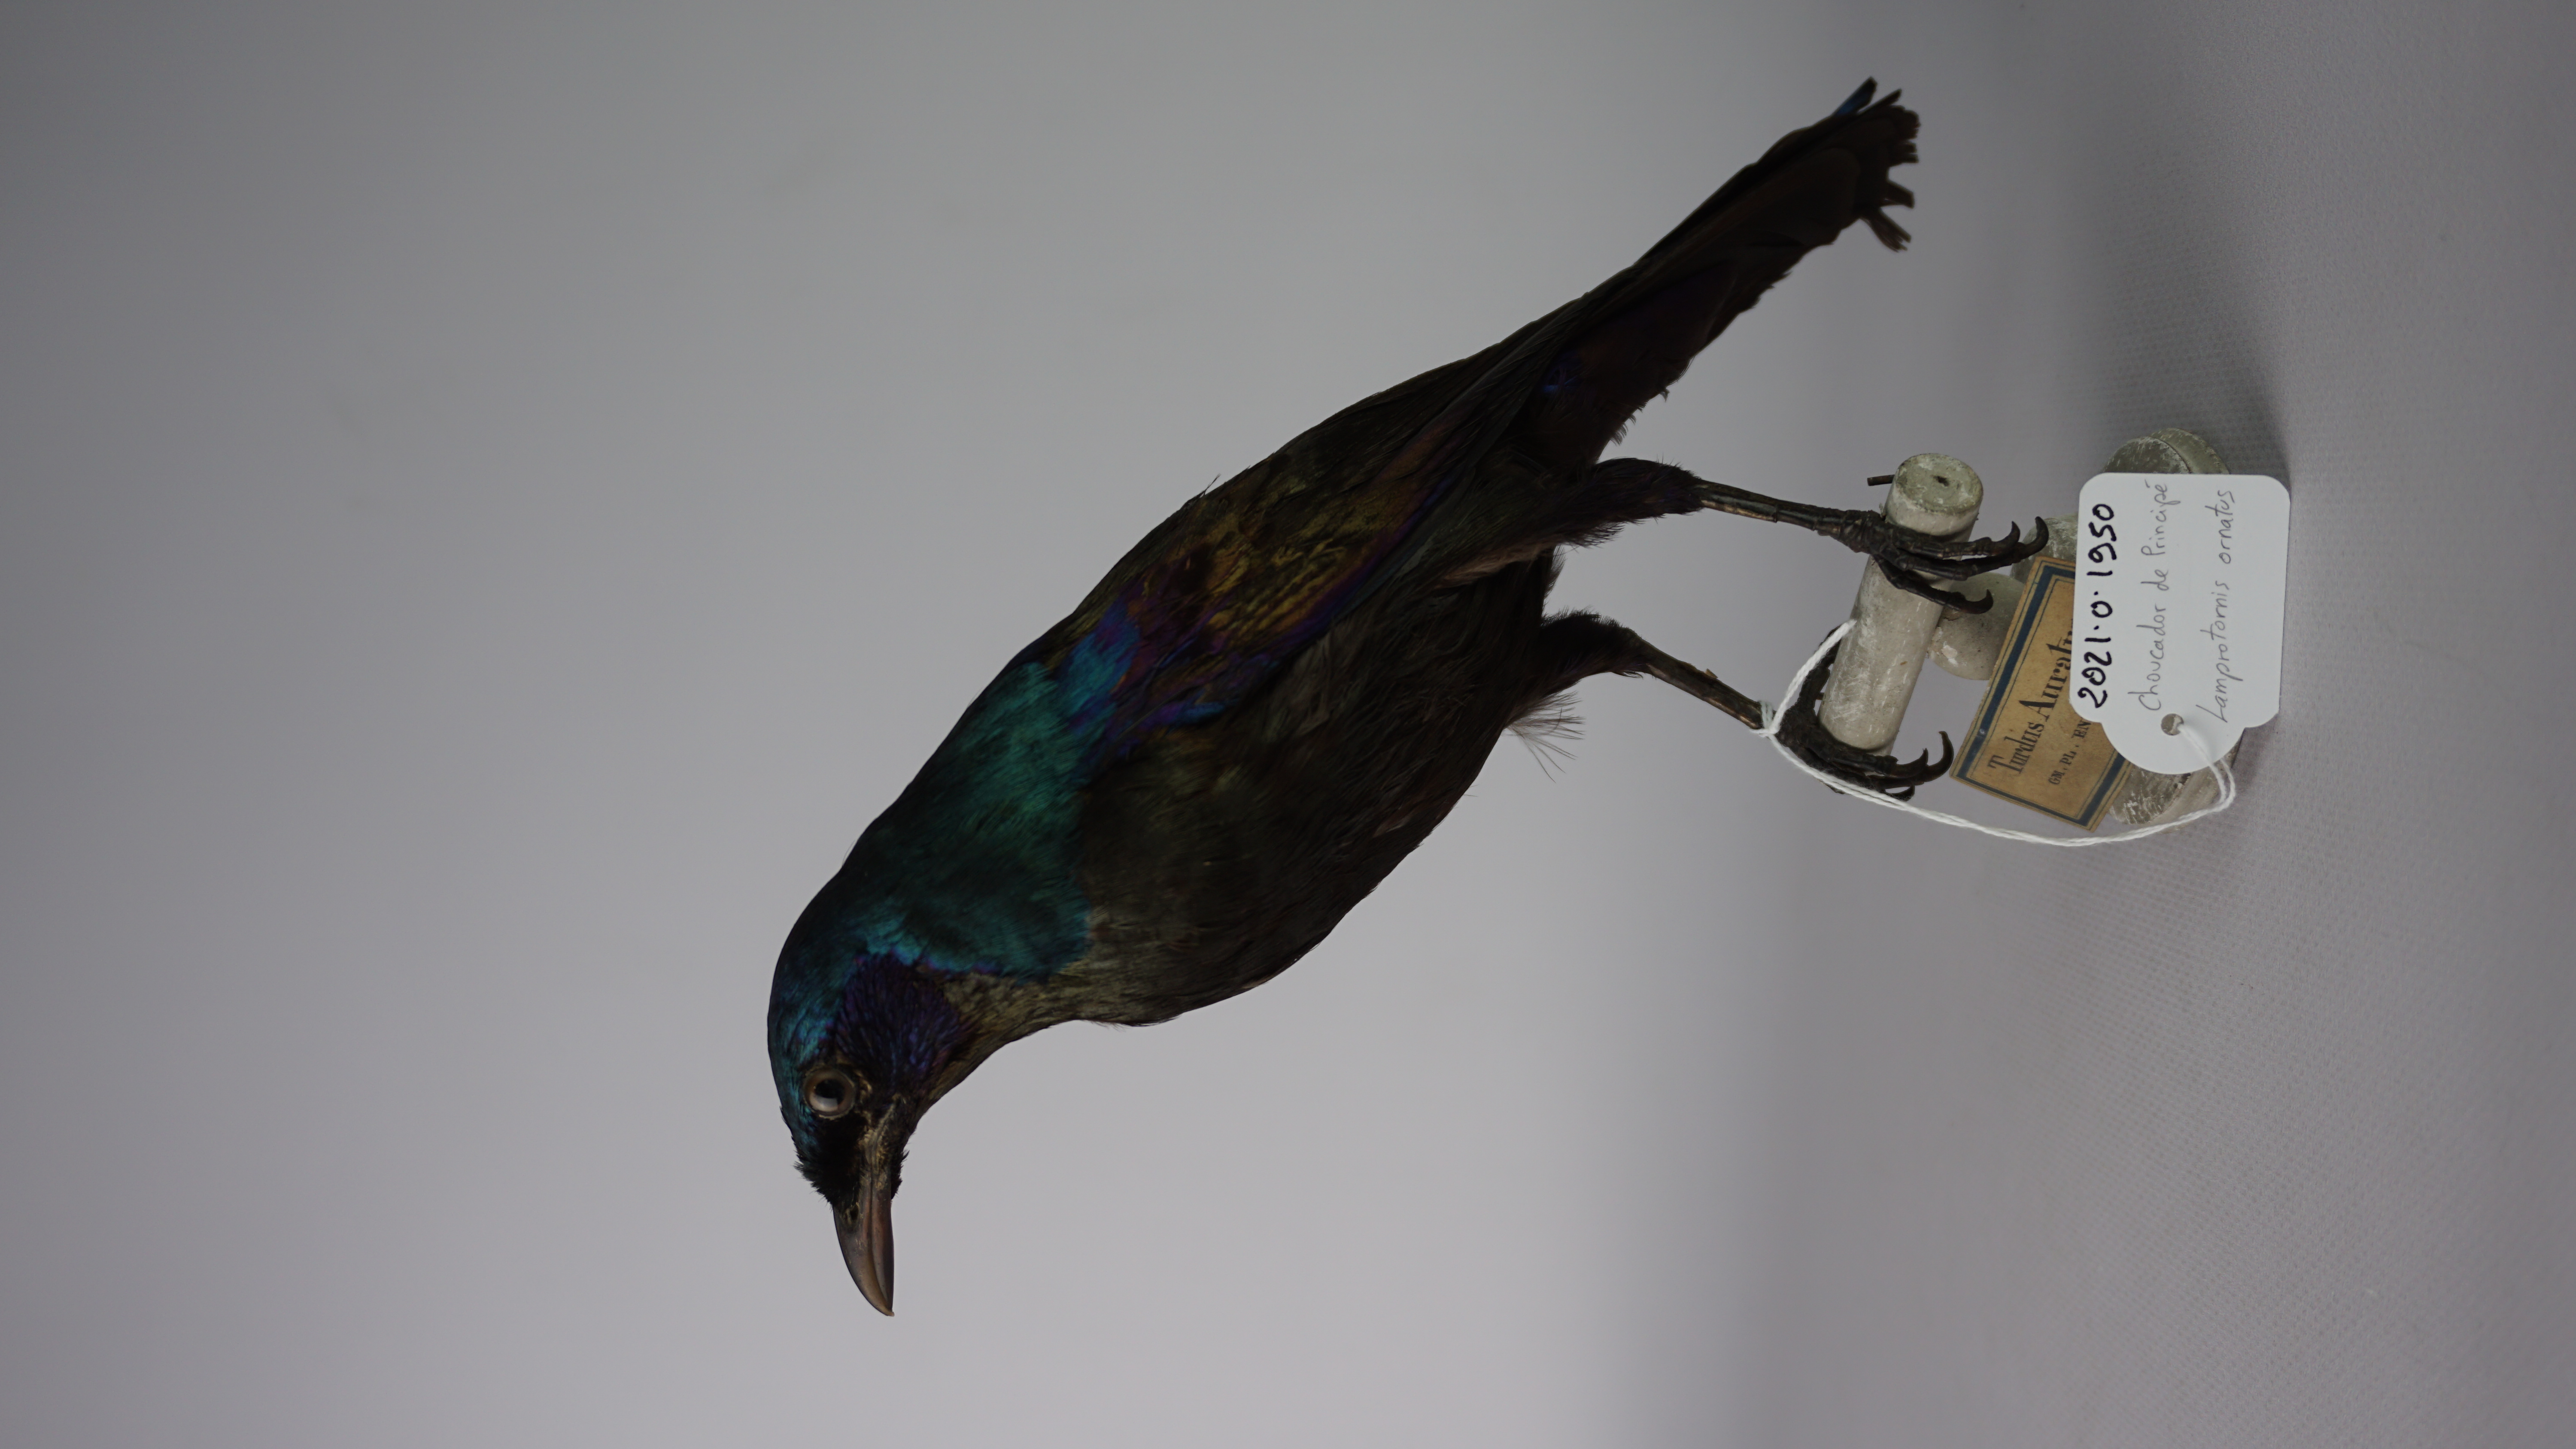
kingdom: Animalia
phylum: Chordata
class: Aves
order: Passeriformes
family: Sturnidae
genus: Lamprotornis
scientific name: Lamprotornis ornatus
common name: Principe starling
